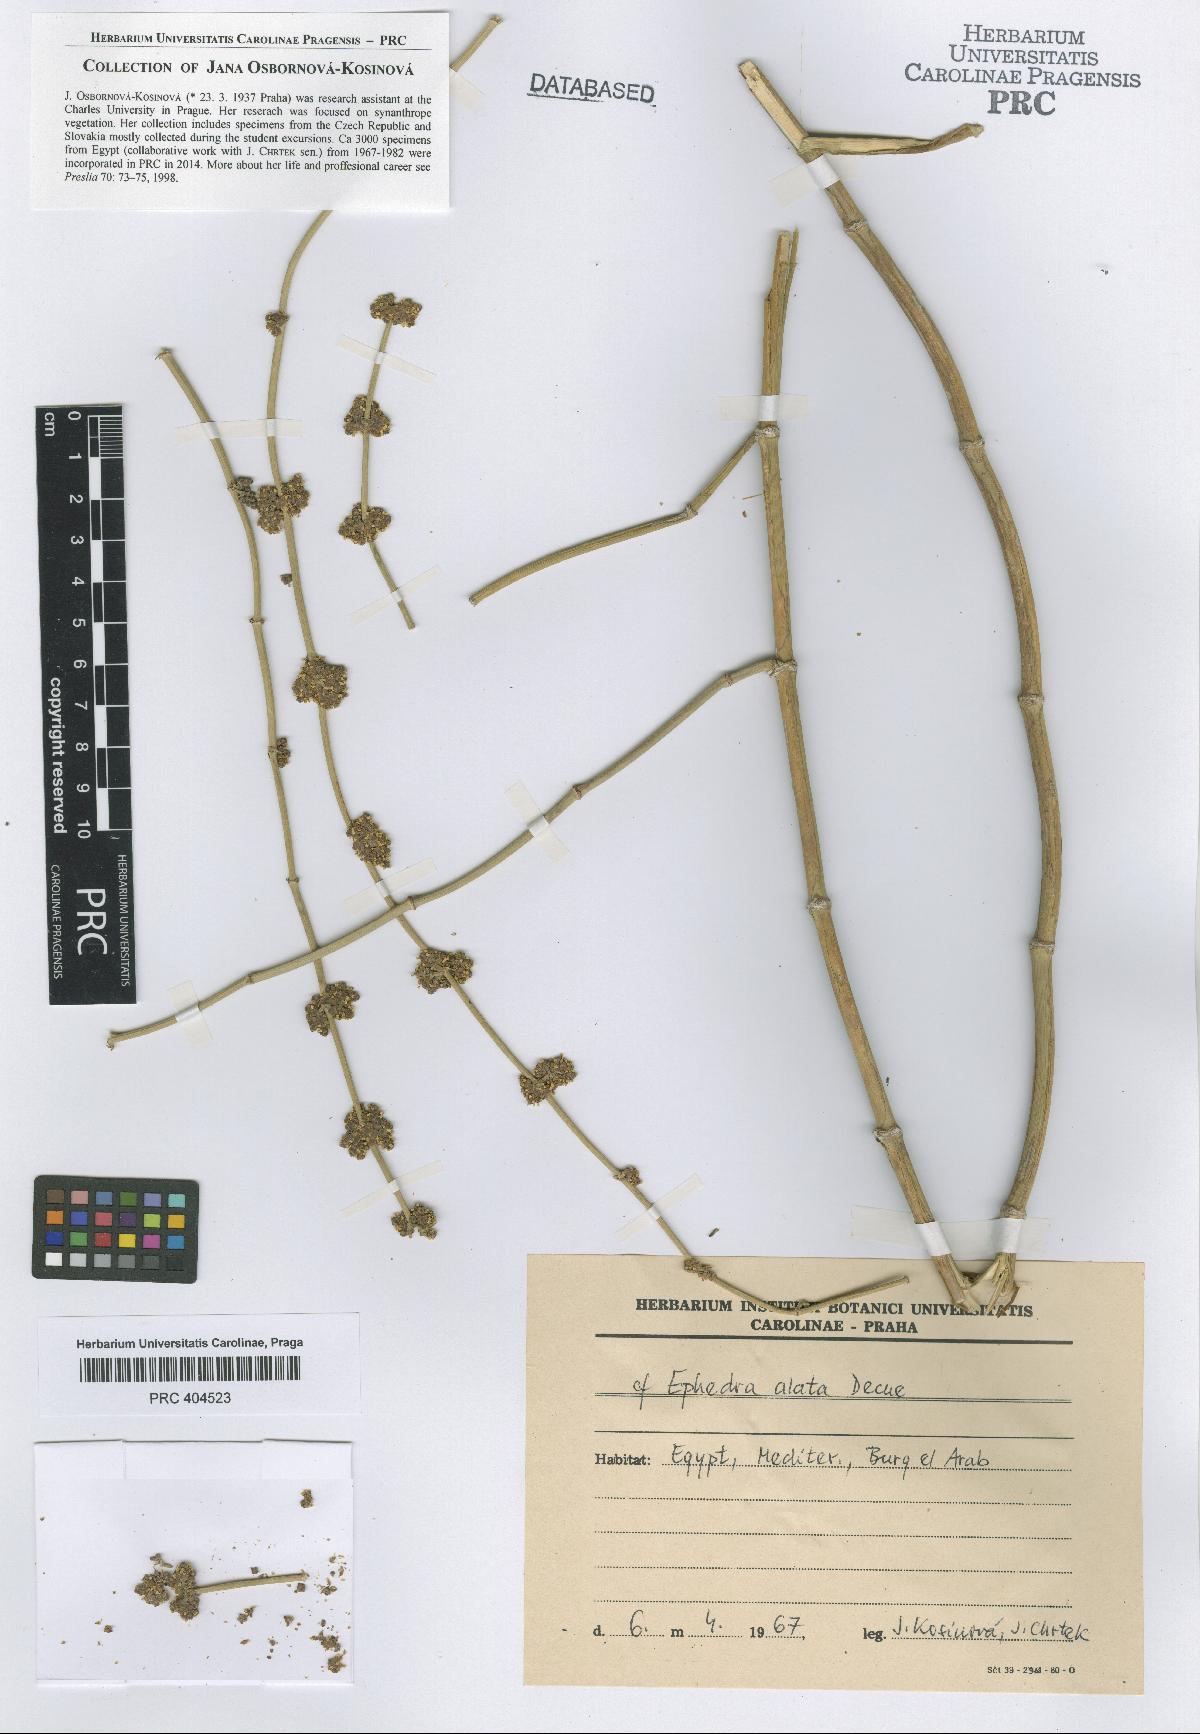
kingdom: Plantae
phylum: Tracheophyta
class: Gnetopsida
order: Ephedrales
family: Ephedraceae
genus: Ephedra
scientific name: Ephedra alata
